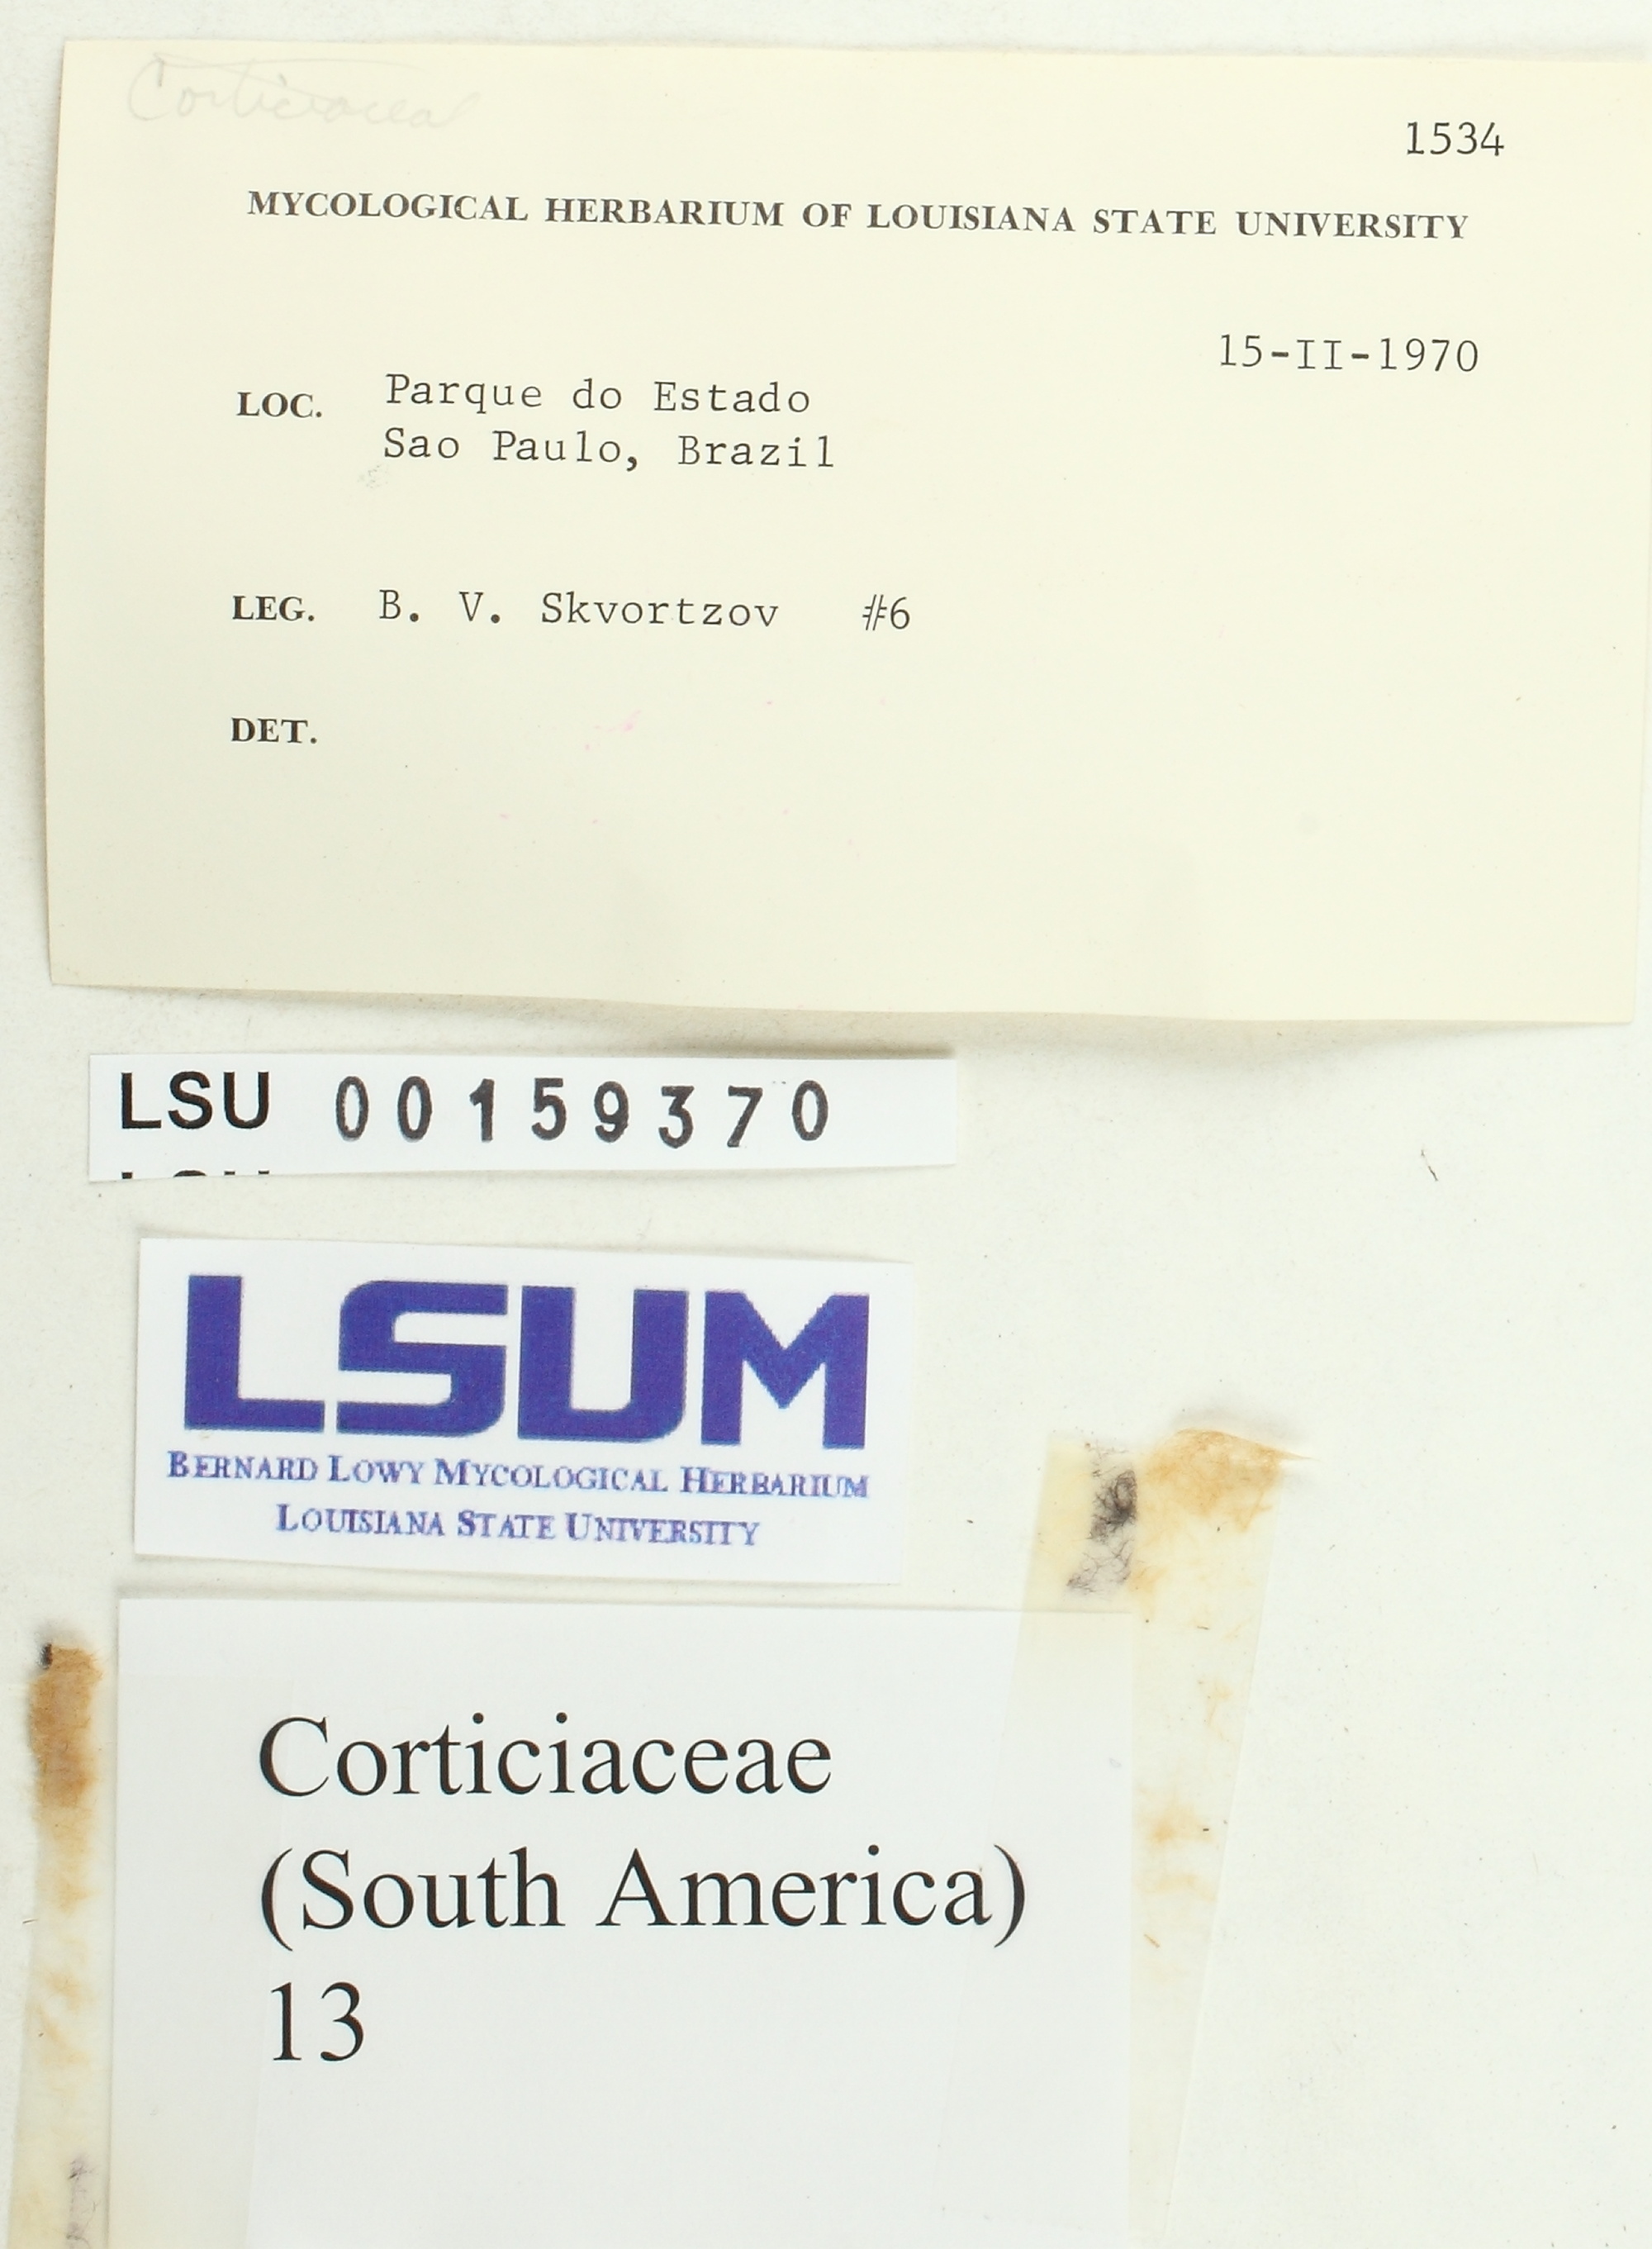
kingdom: Fungi
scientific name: Fungi
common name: Fungi
